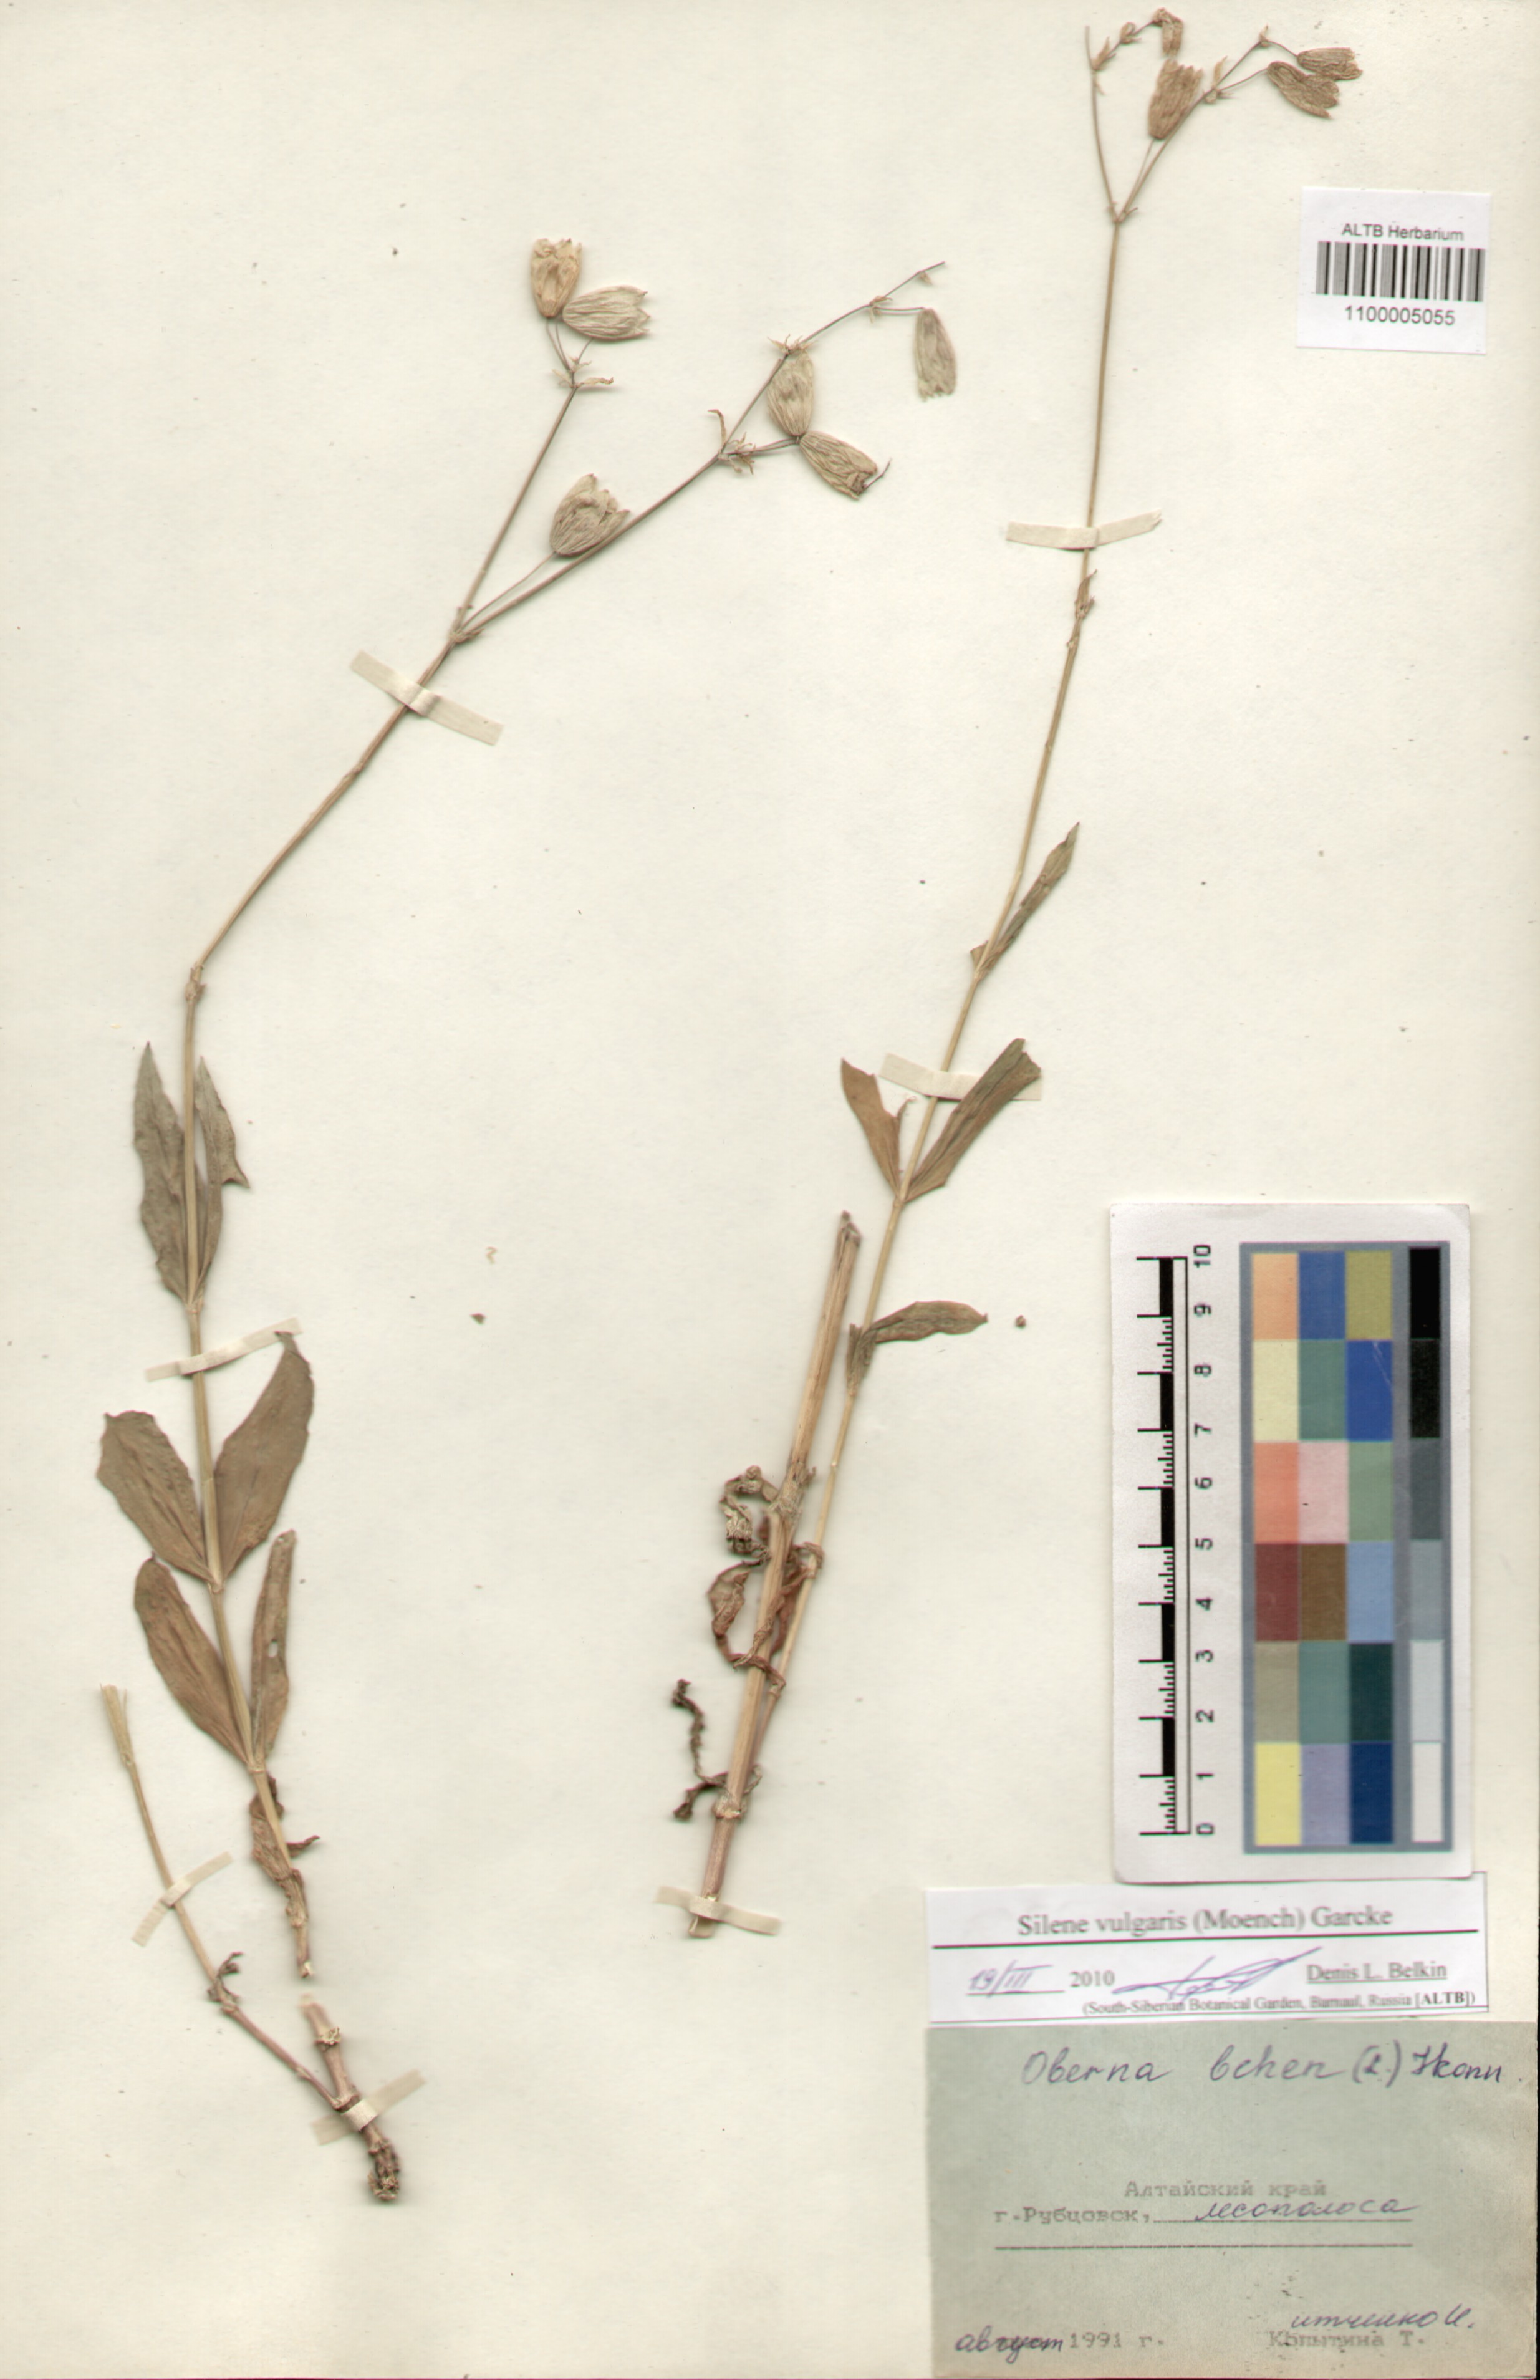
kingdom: Plantae
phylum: Tracheophyta
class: Magnoliopsida
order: Caryophyllales
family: Caryophyllaceae
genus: Silene
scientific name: Silene vulgaris
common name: Bladder campion
